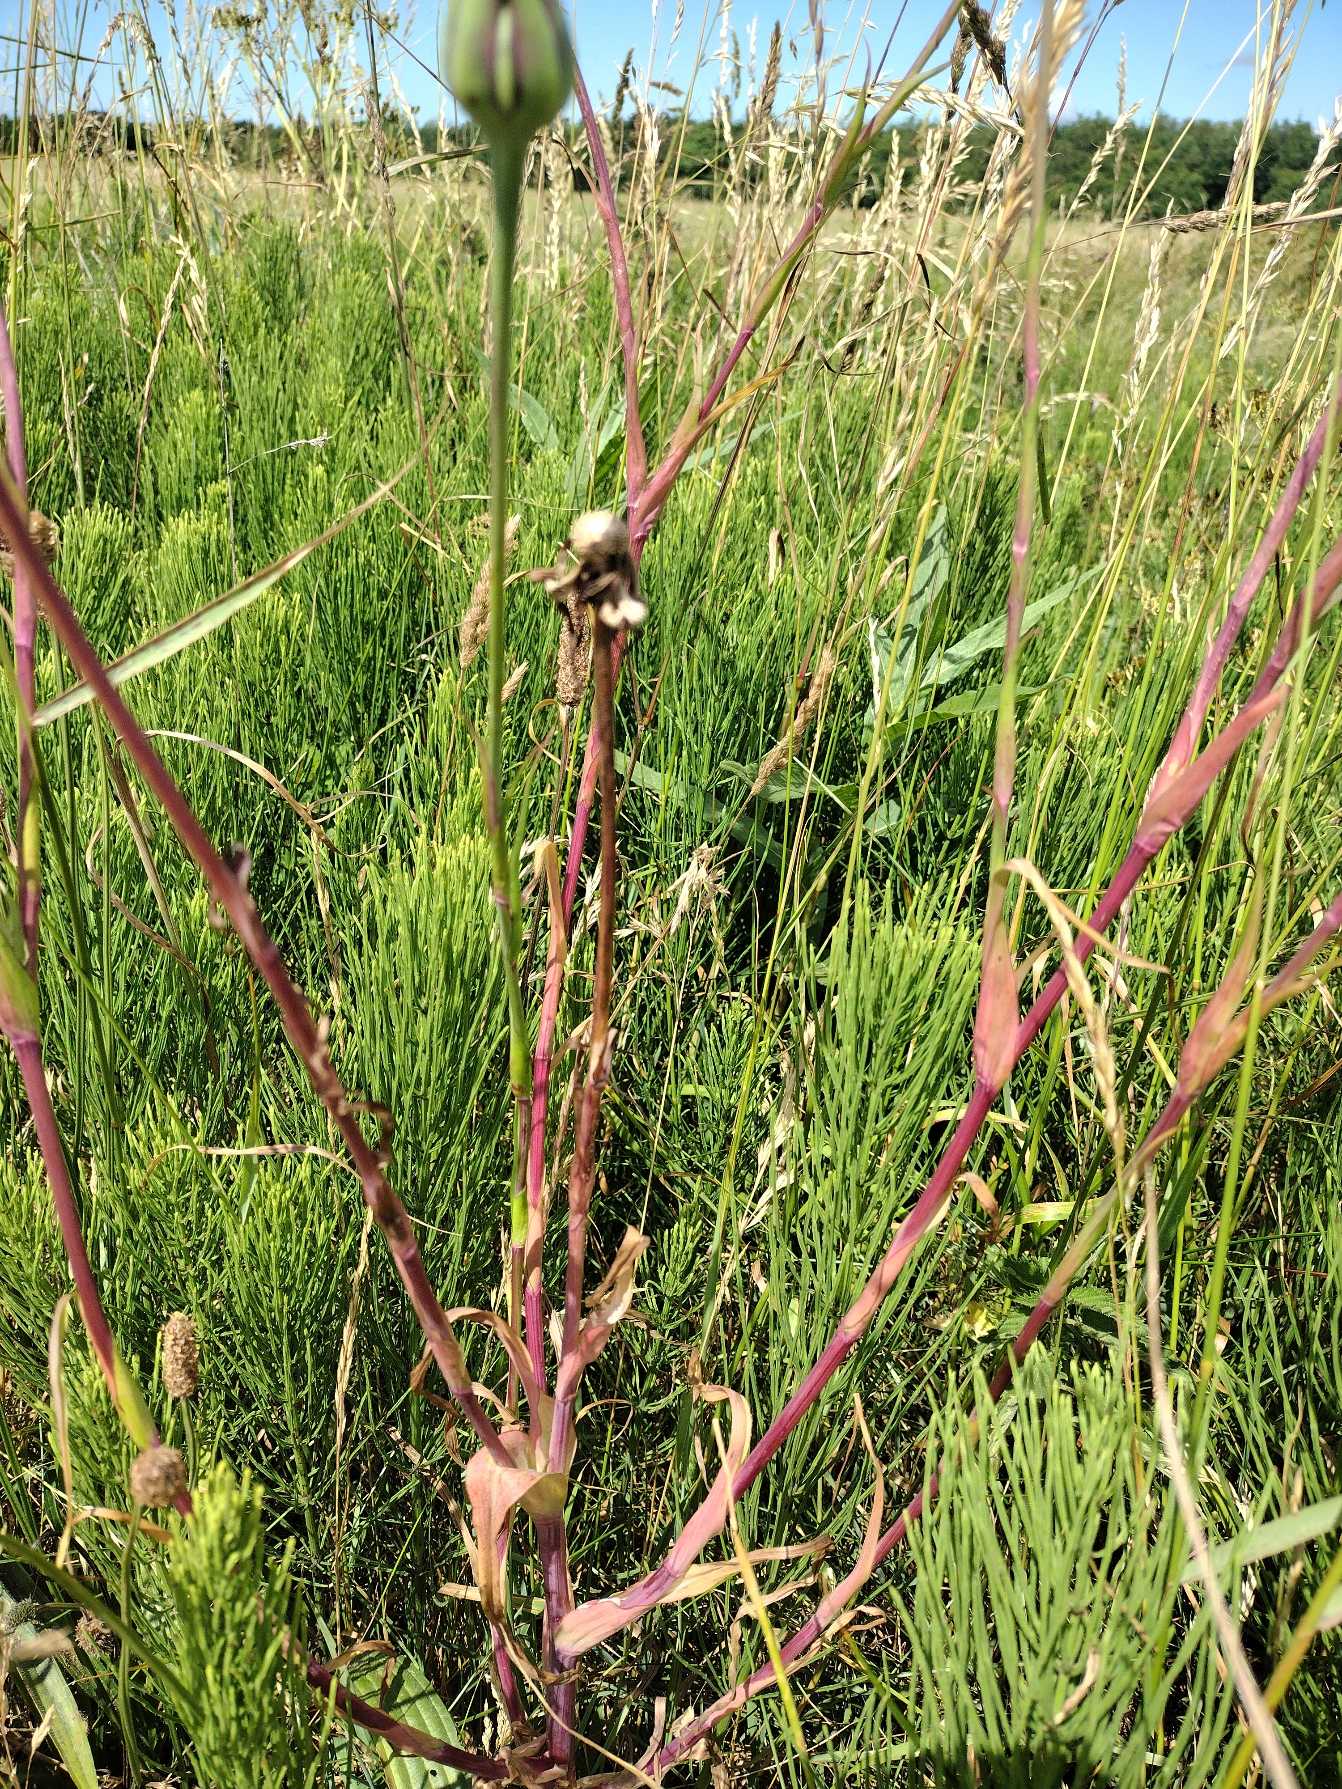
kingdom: Plantae
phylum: Tracheophyta
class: Magnoliopsida
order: Asterales
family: Asteraceae
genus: Tragopogon
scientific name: Tragopogon minor
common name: Småkronet gedeskæg
